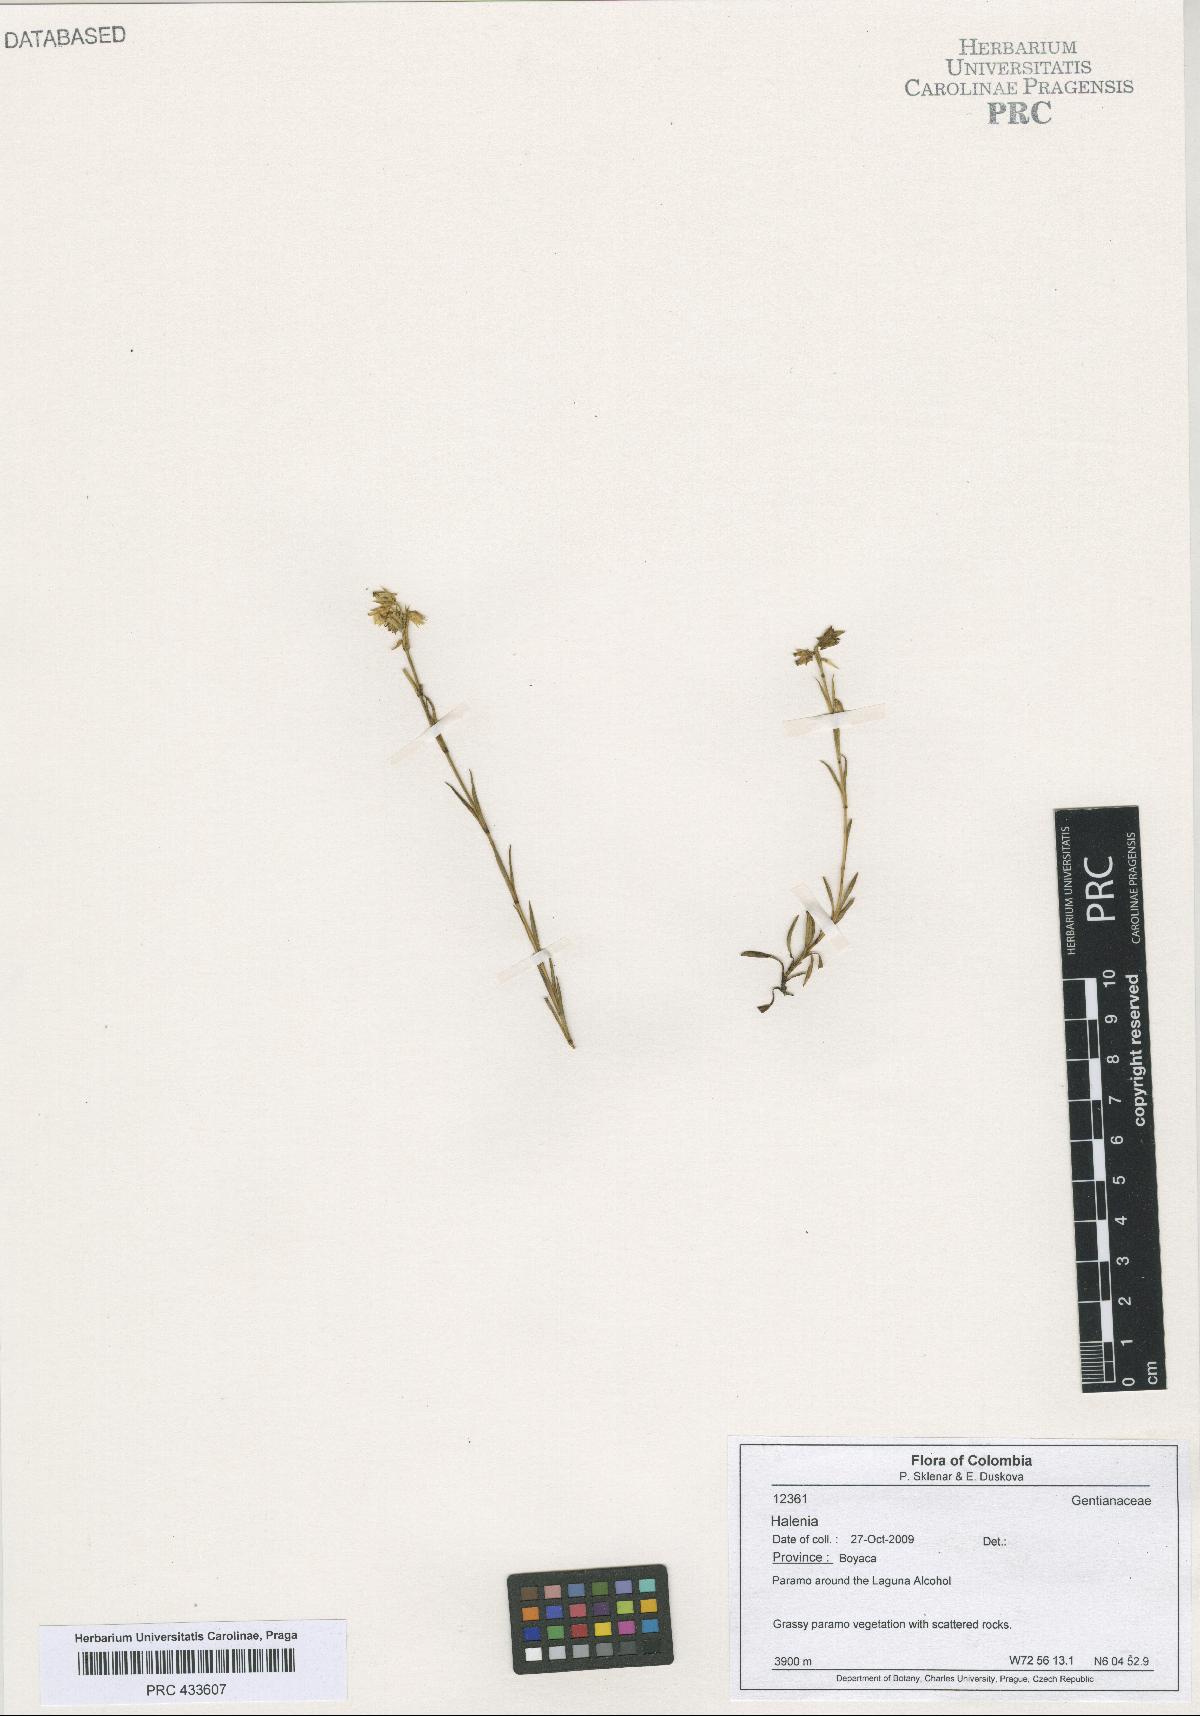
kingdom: Plantae
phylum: Tracheophyta
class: Magnoliopsida
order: Gentianales
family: Gentianaceae
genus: Halenia
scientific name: Halenia
